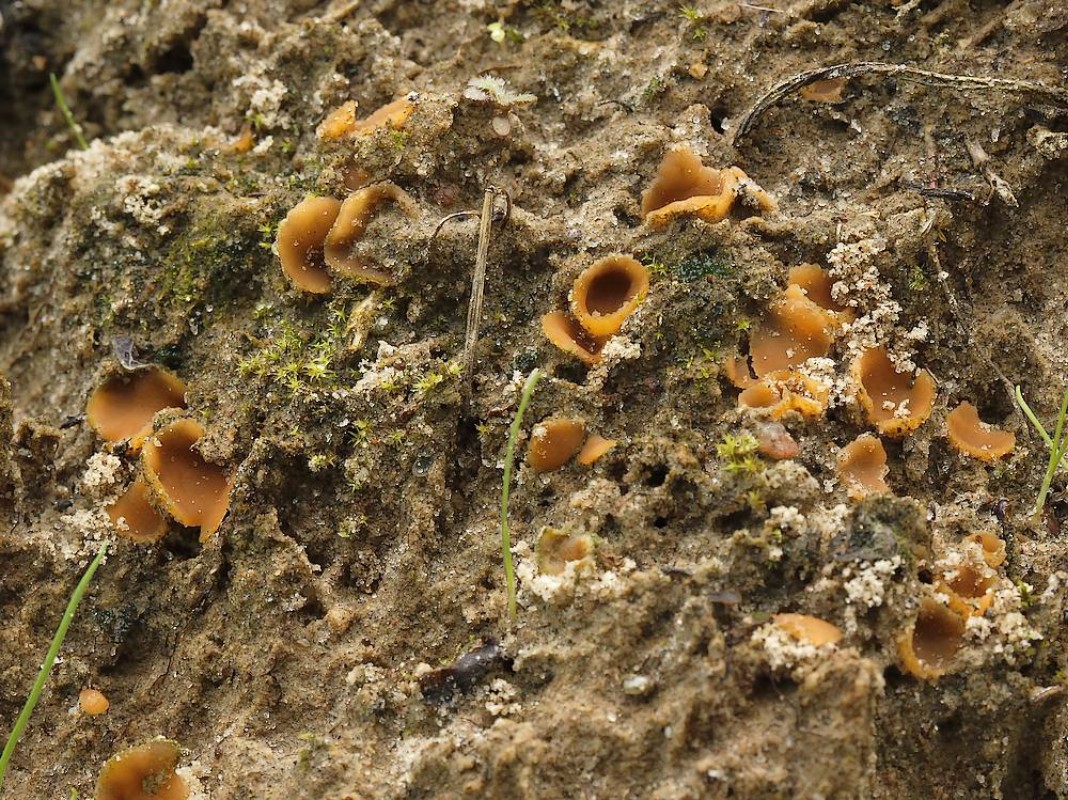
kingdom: Fungi
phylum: Ascomycota
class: Pezizomycetes
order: Pezizales
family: Pyronemataceae
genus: Geopora
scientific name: Geopora semi-immersa
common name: nedsænket børstebæger
